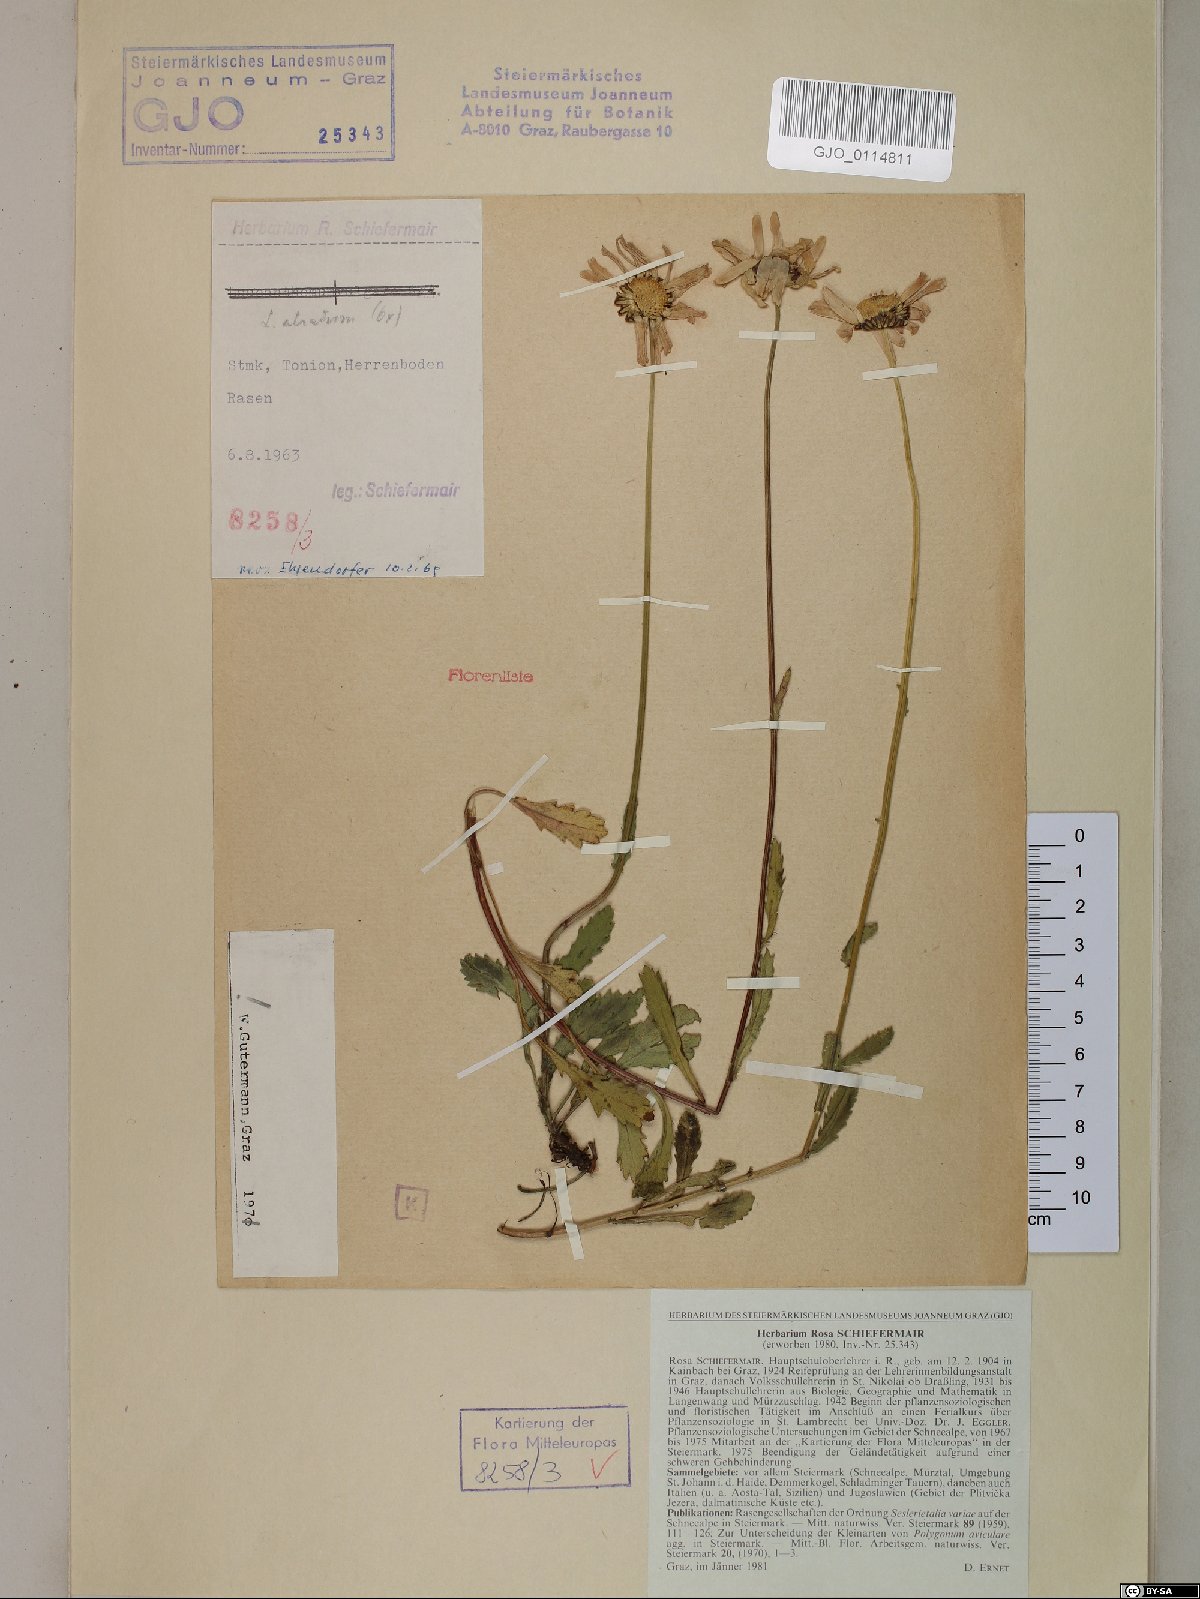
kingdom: Plantae
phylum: Tracheophyta
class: Magnoliopsida
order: Asterales
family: Asteraceae
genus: Leucanthemum
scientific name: Leucanthemum atratum
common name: Saw-leaved moon-daisy
